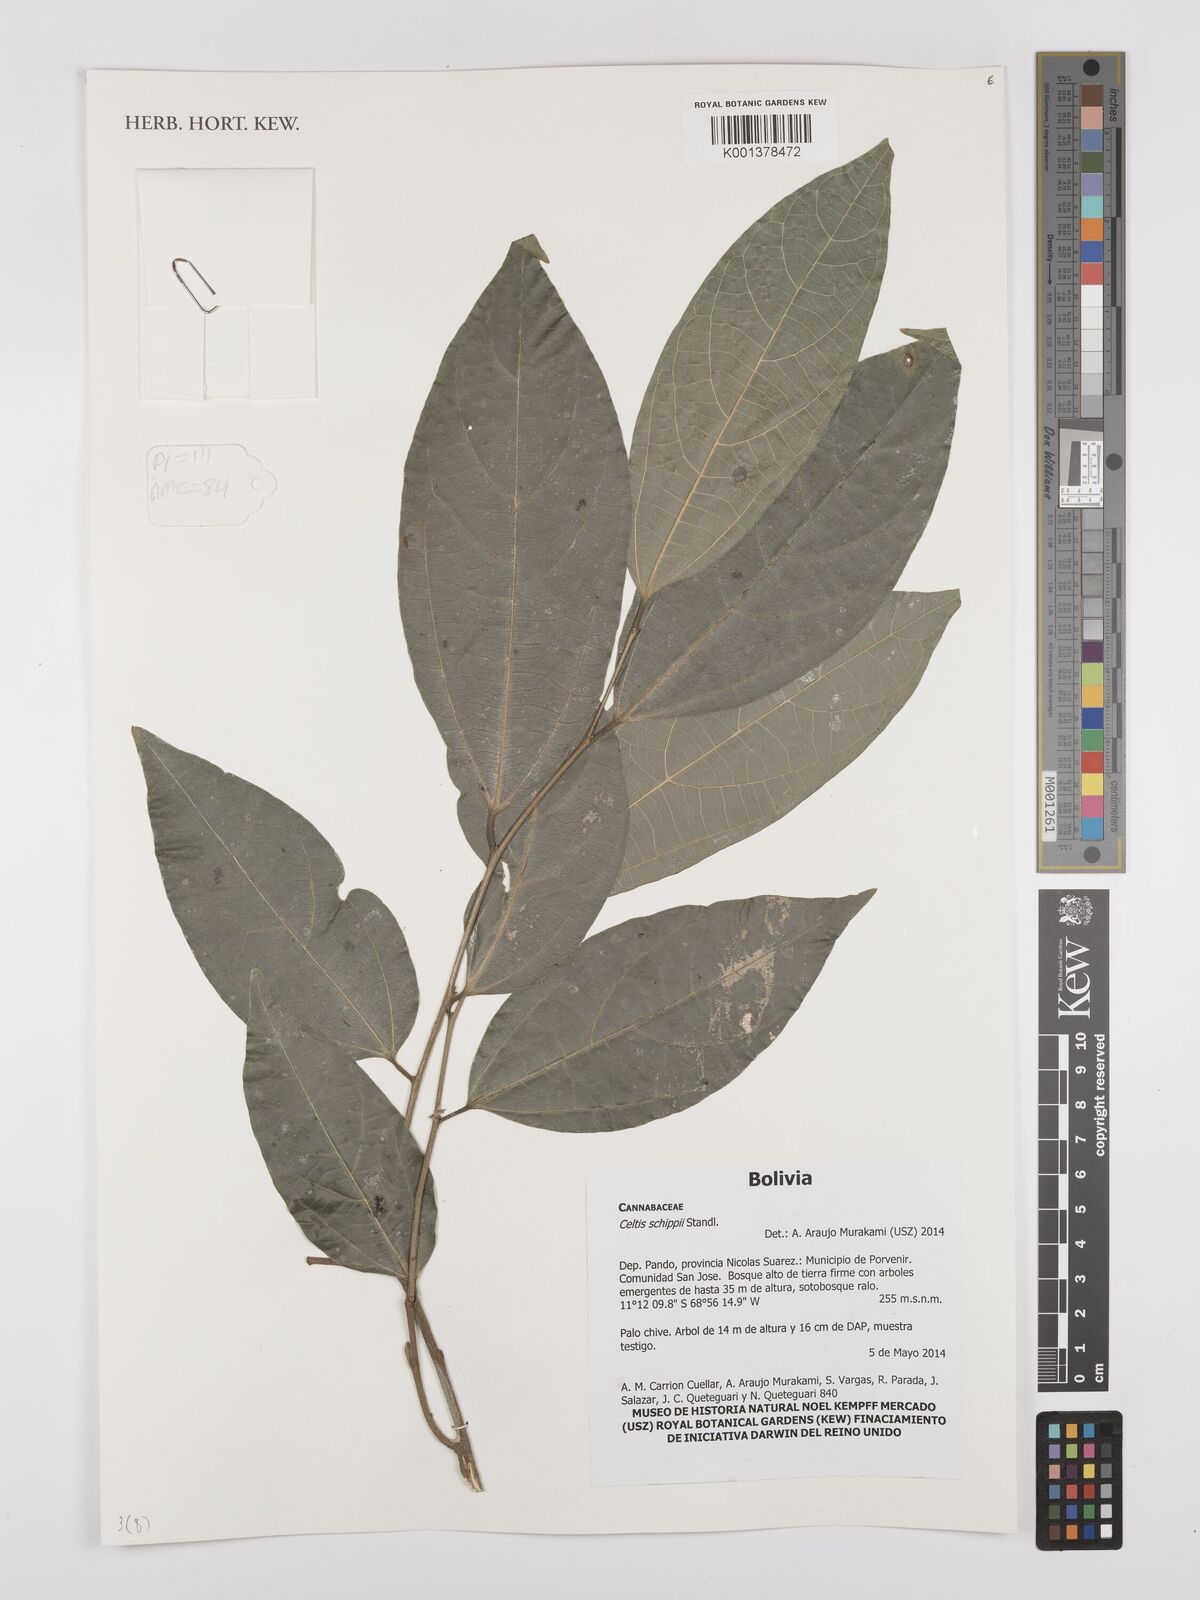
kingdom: Plantae
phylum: Tracheophyta
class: Magnoliopsida
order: Rosales
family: Cannabaceae
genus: Celtis
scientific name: Celtis schippii
